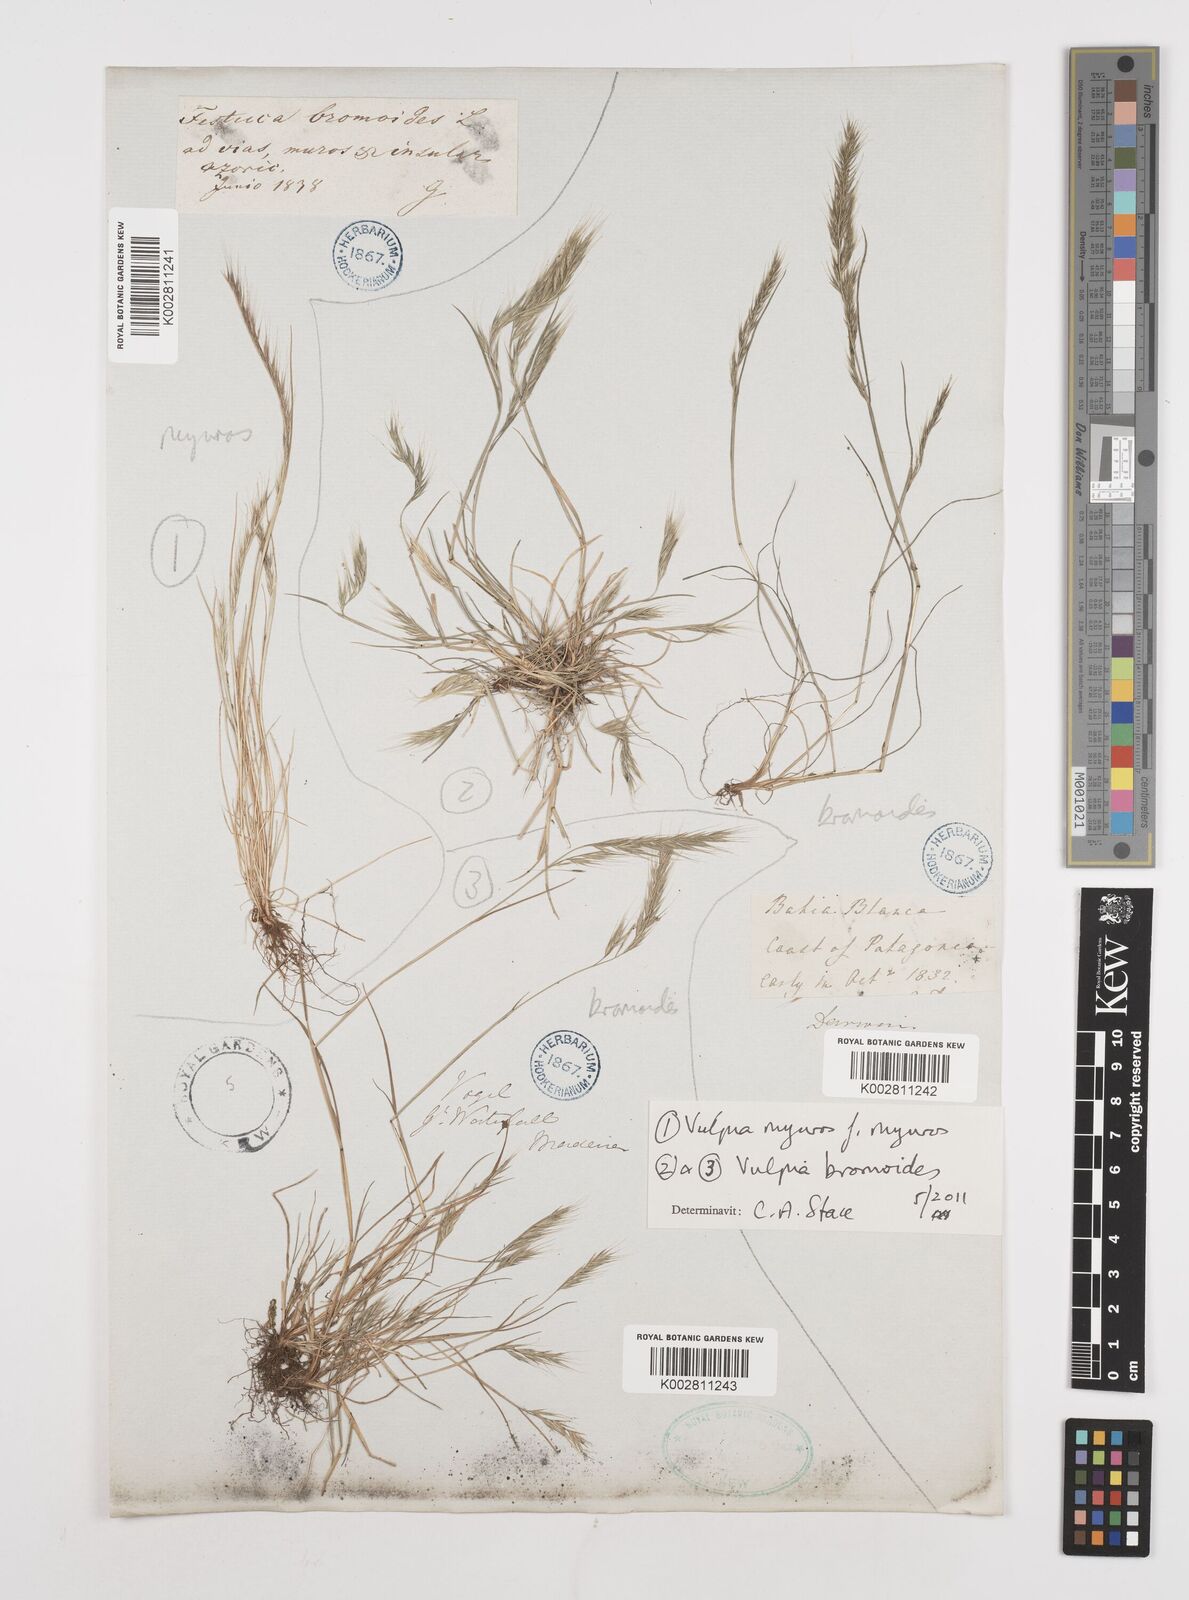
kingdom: Plantae
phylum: Tracheophyta
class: Liliopsida
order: Poales
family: Poaceae
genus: Festuca
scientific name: Festuca
